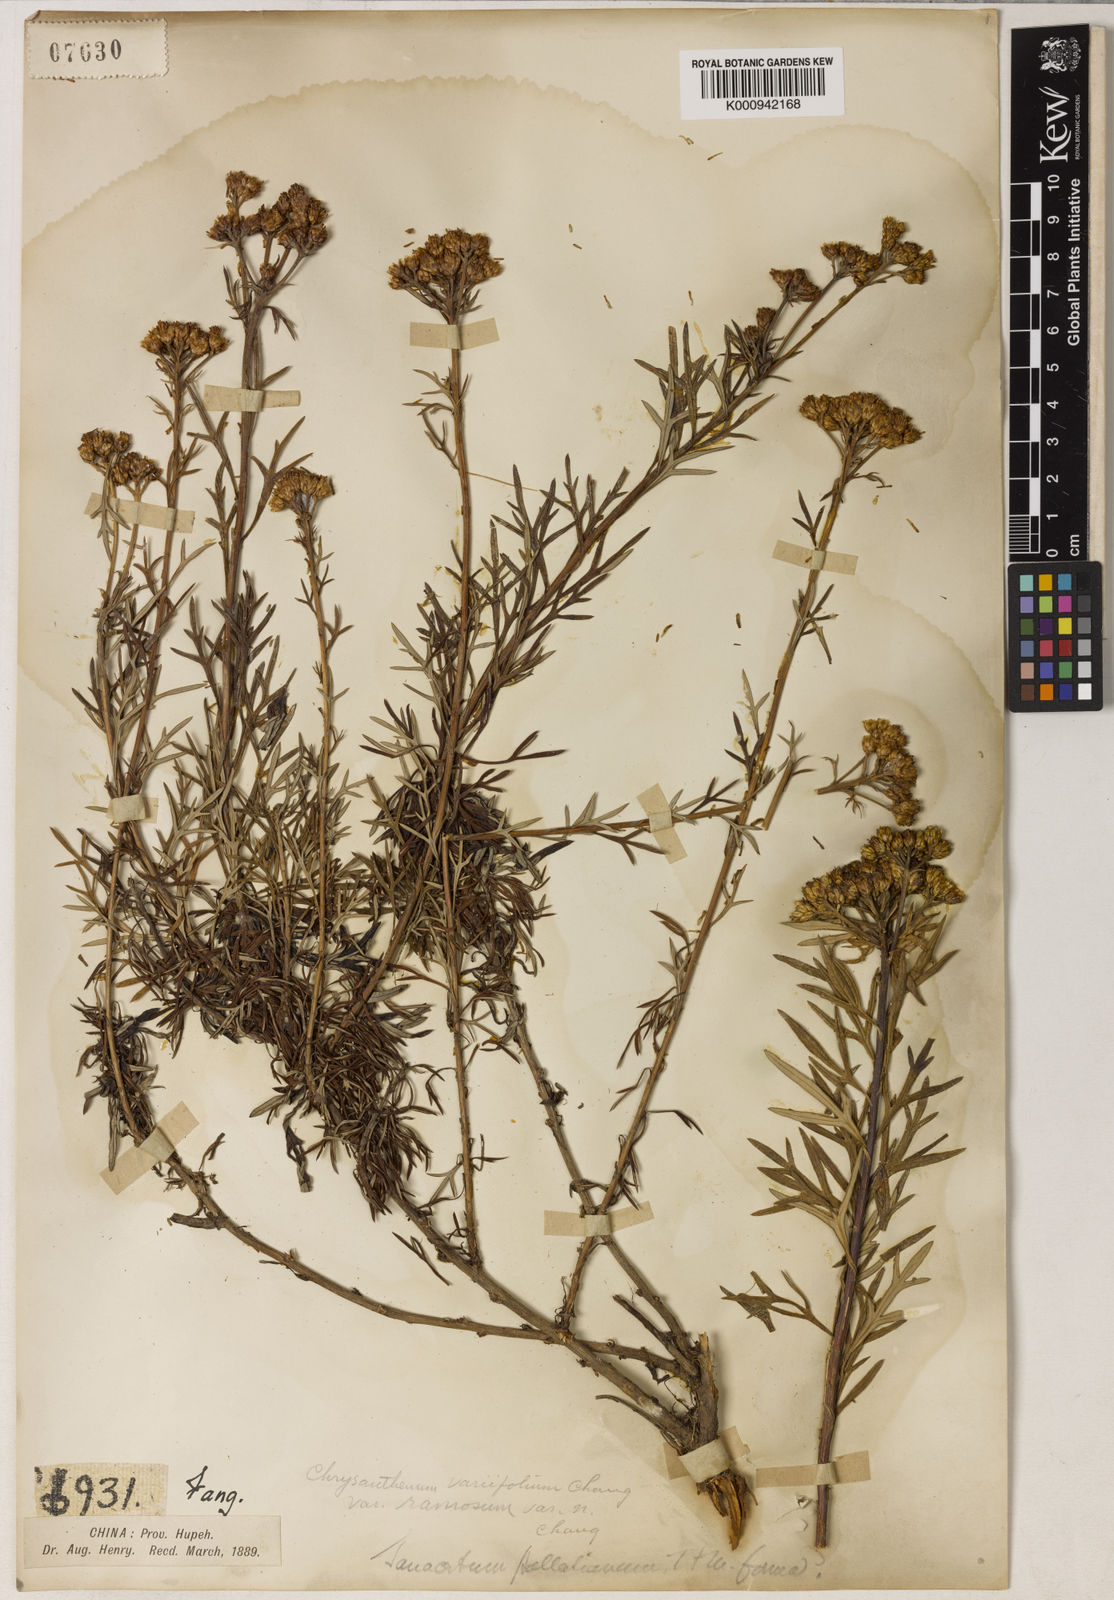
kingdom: Plantae
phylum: Tracheophyta
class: Magnoliopsida
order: Asterales
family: Asteraceae
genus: Phaeostigma
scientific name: Phaeostigma variifolium
